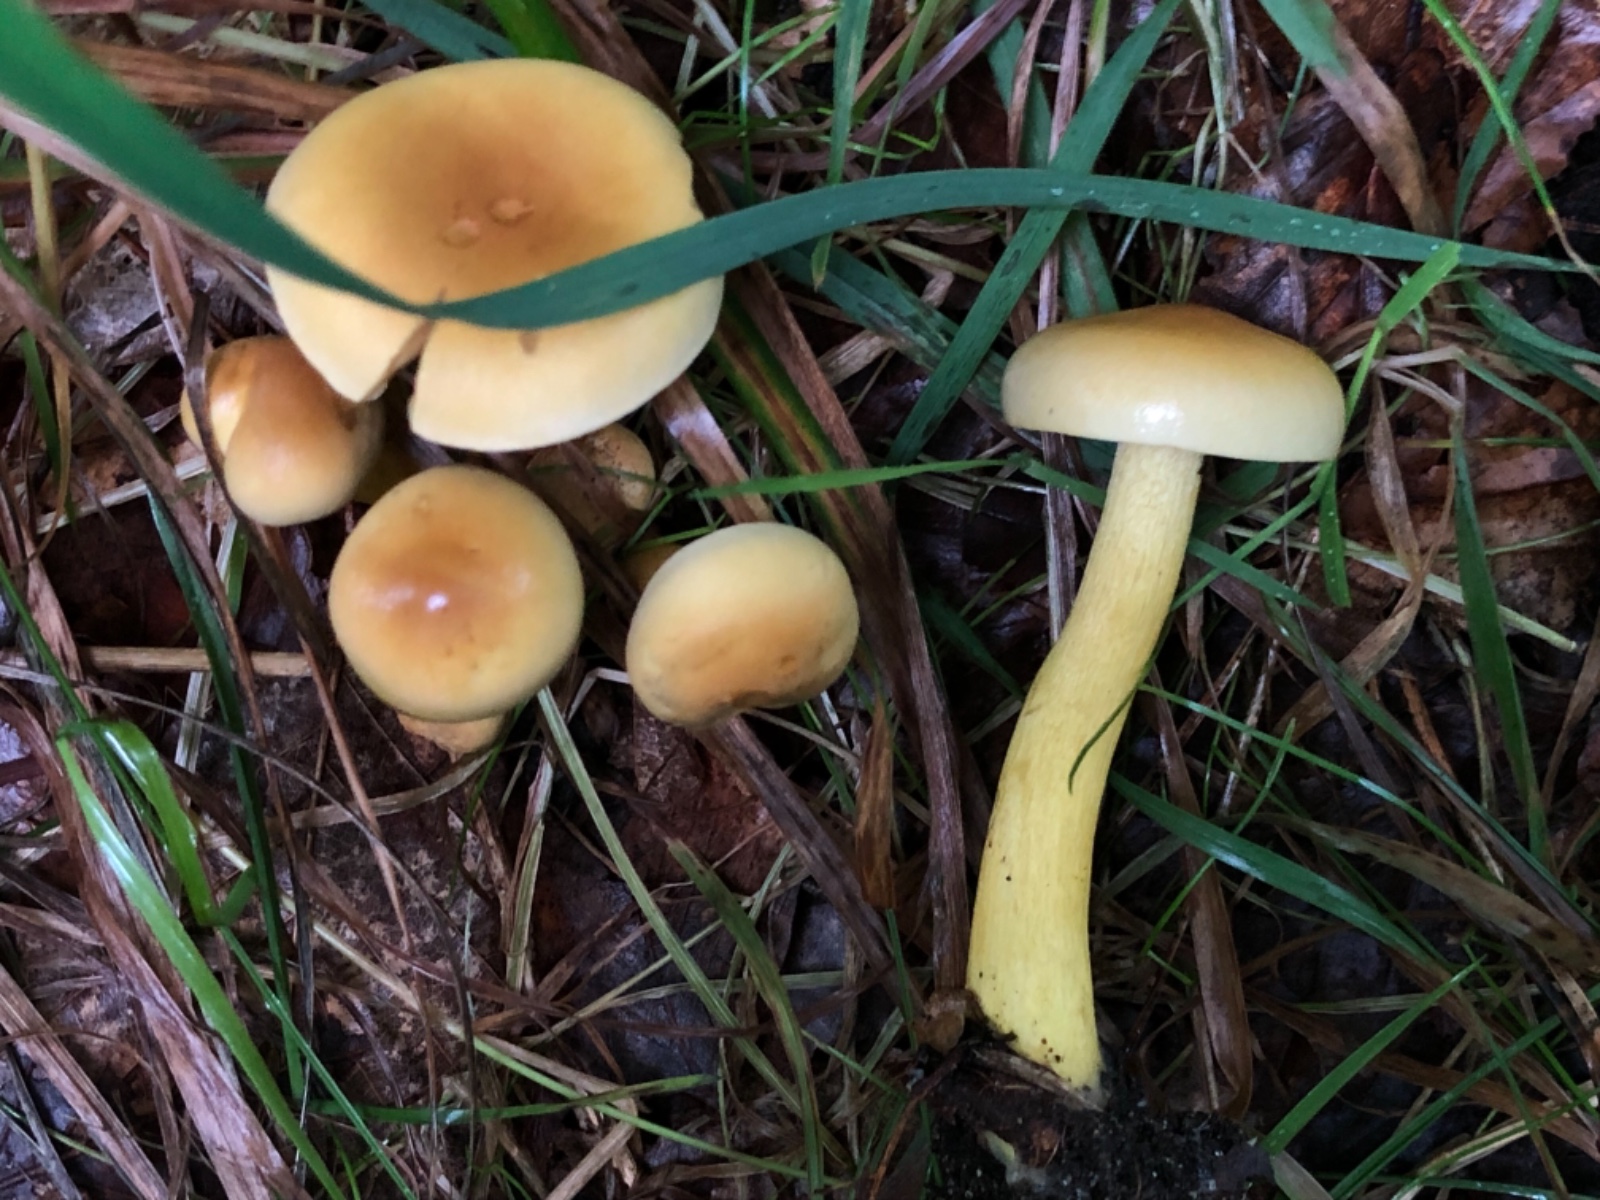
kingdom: Fungi
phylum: Basidiomycota
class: Agaricomycetes
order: Agaricales
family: Tricholomataceae
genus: Tricholoma
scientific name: Tricholoma sulphureum
